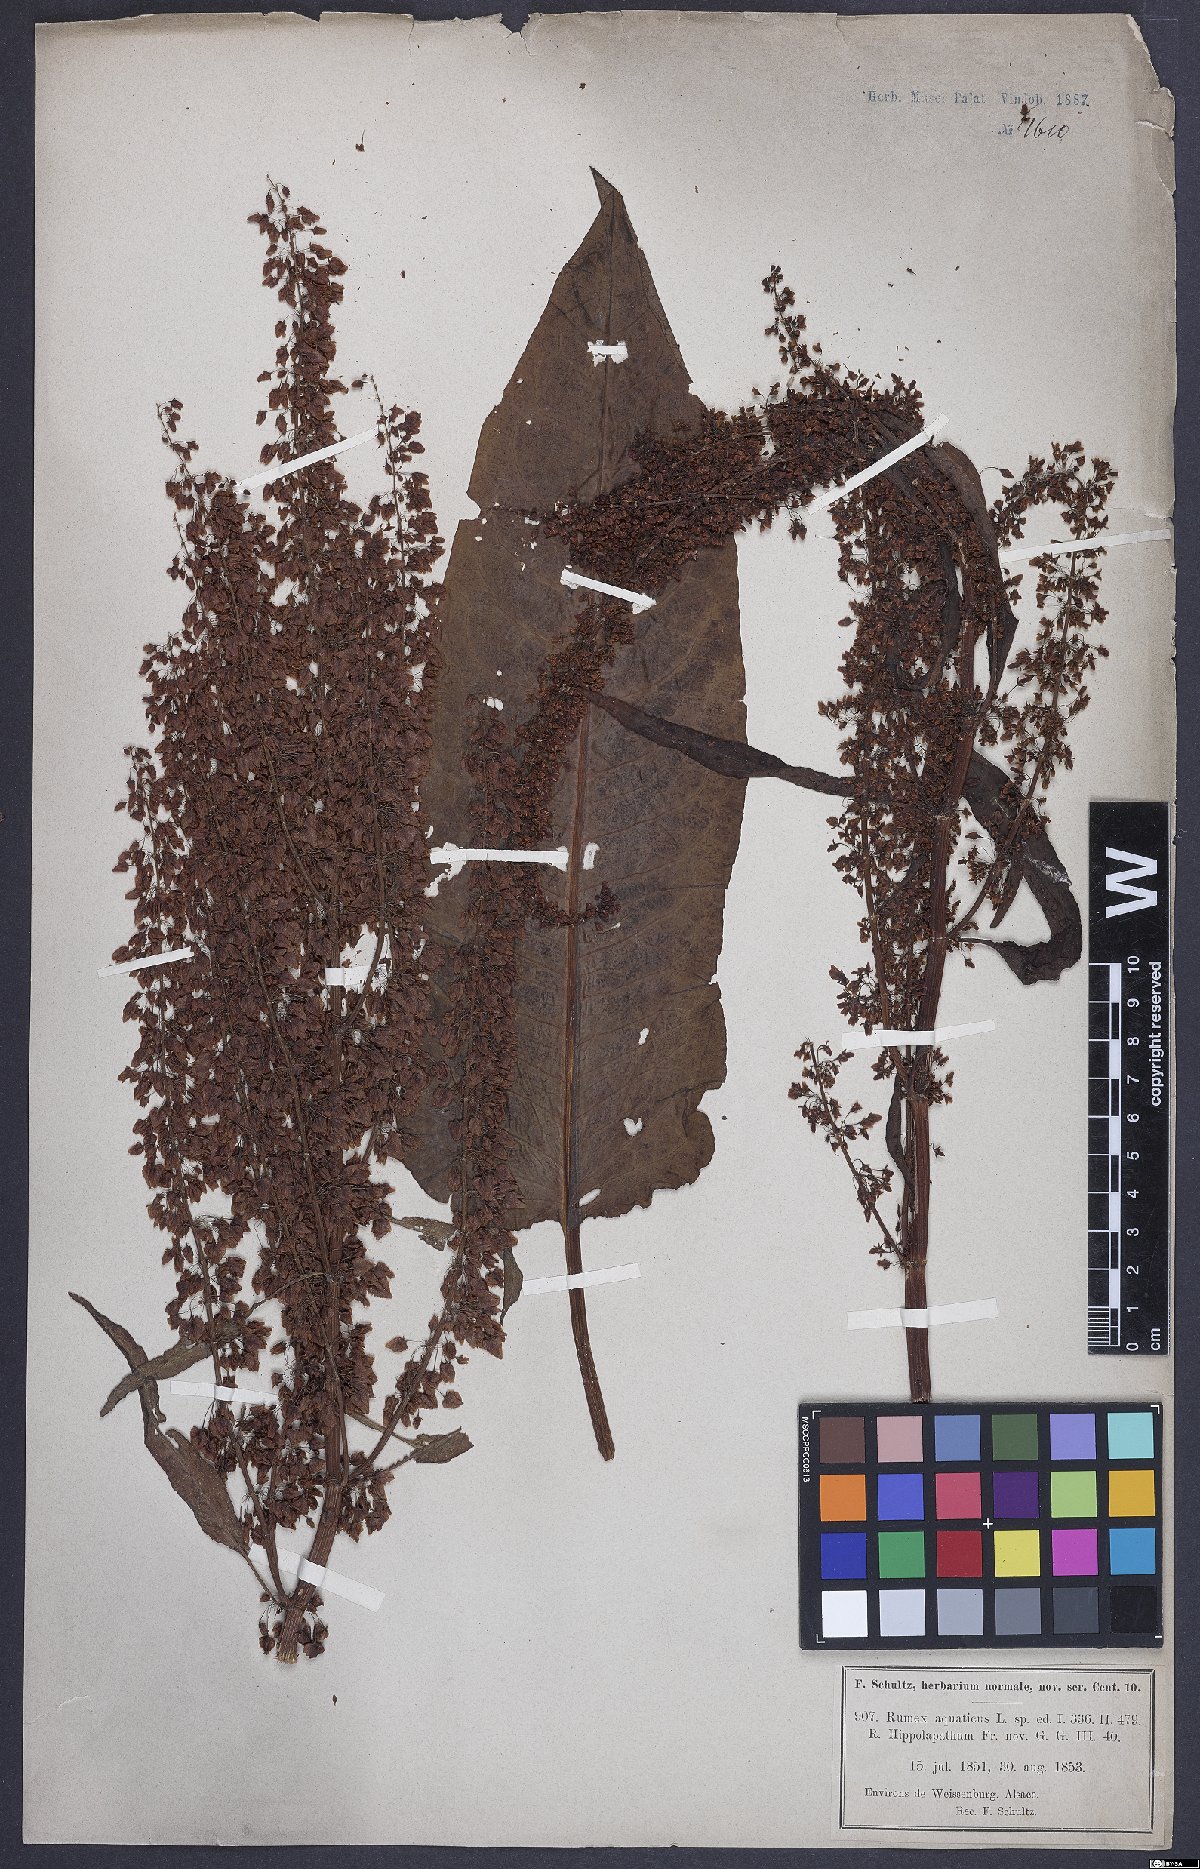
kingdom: Plantae
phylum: Tracheophyta
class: Magnoliopsida
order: Caryophyllales
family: Polygonaceae
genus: Rumex
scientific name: Rumex aquaticus
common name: Scottish dock
